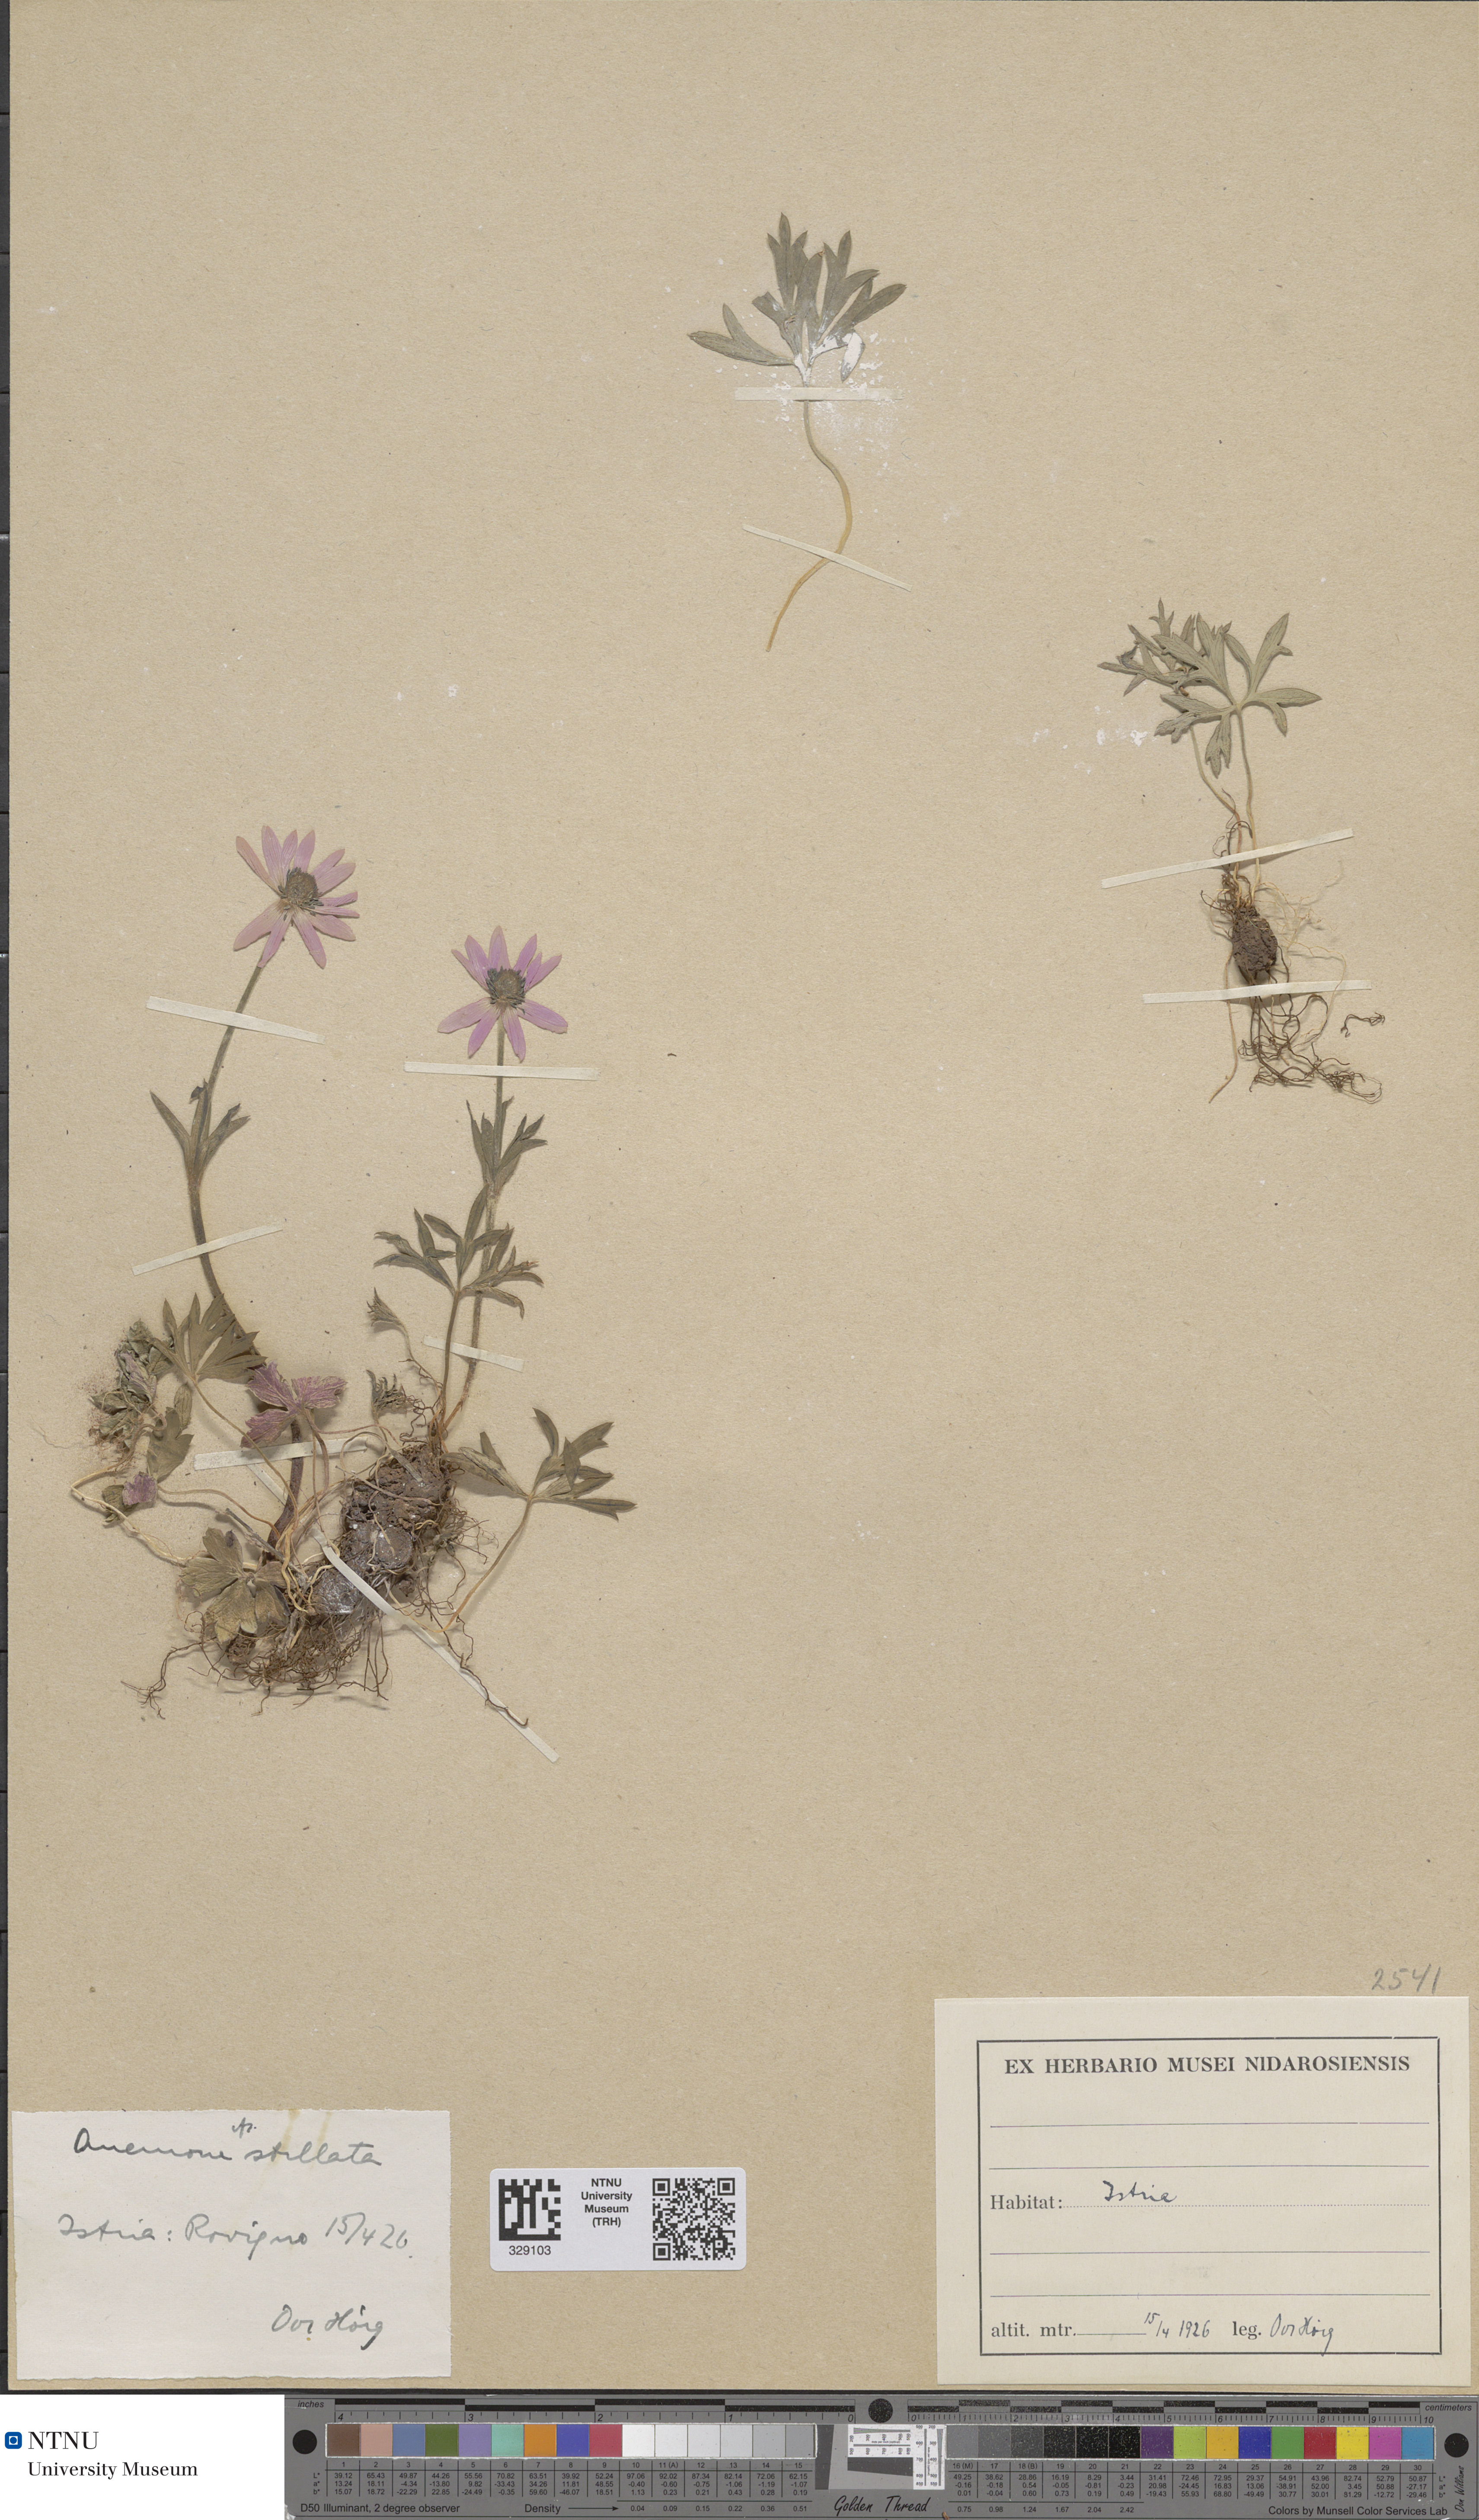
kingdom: Plantae
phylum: Tracheophyta
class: Magnoliopsida
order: Ranunculales
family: Ranunculaceae
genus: Anemone
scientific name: Anemone hortensis
